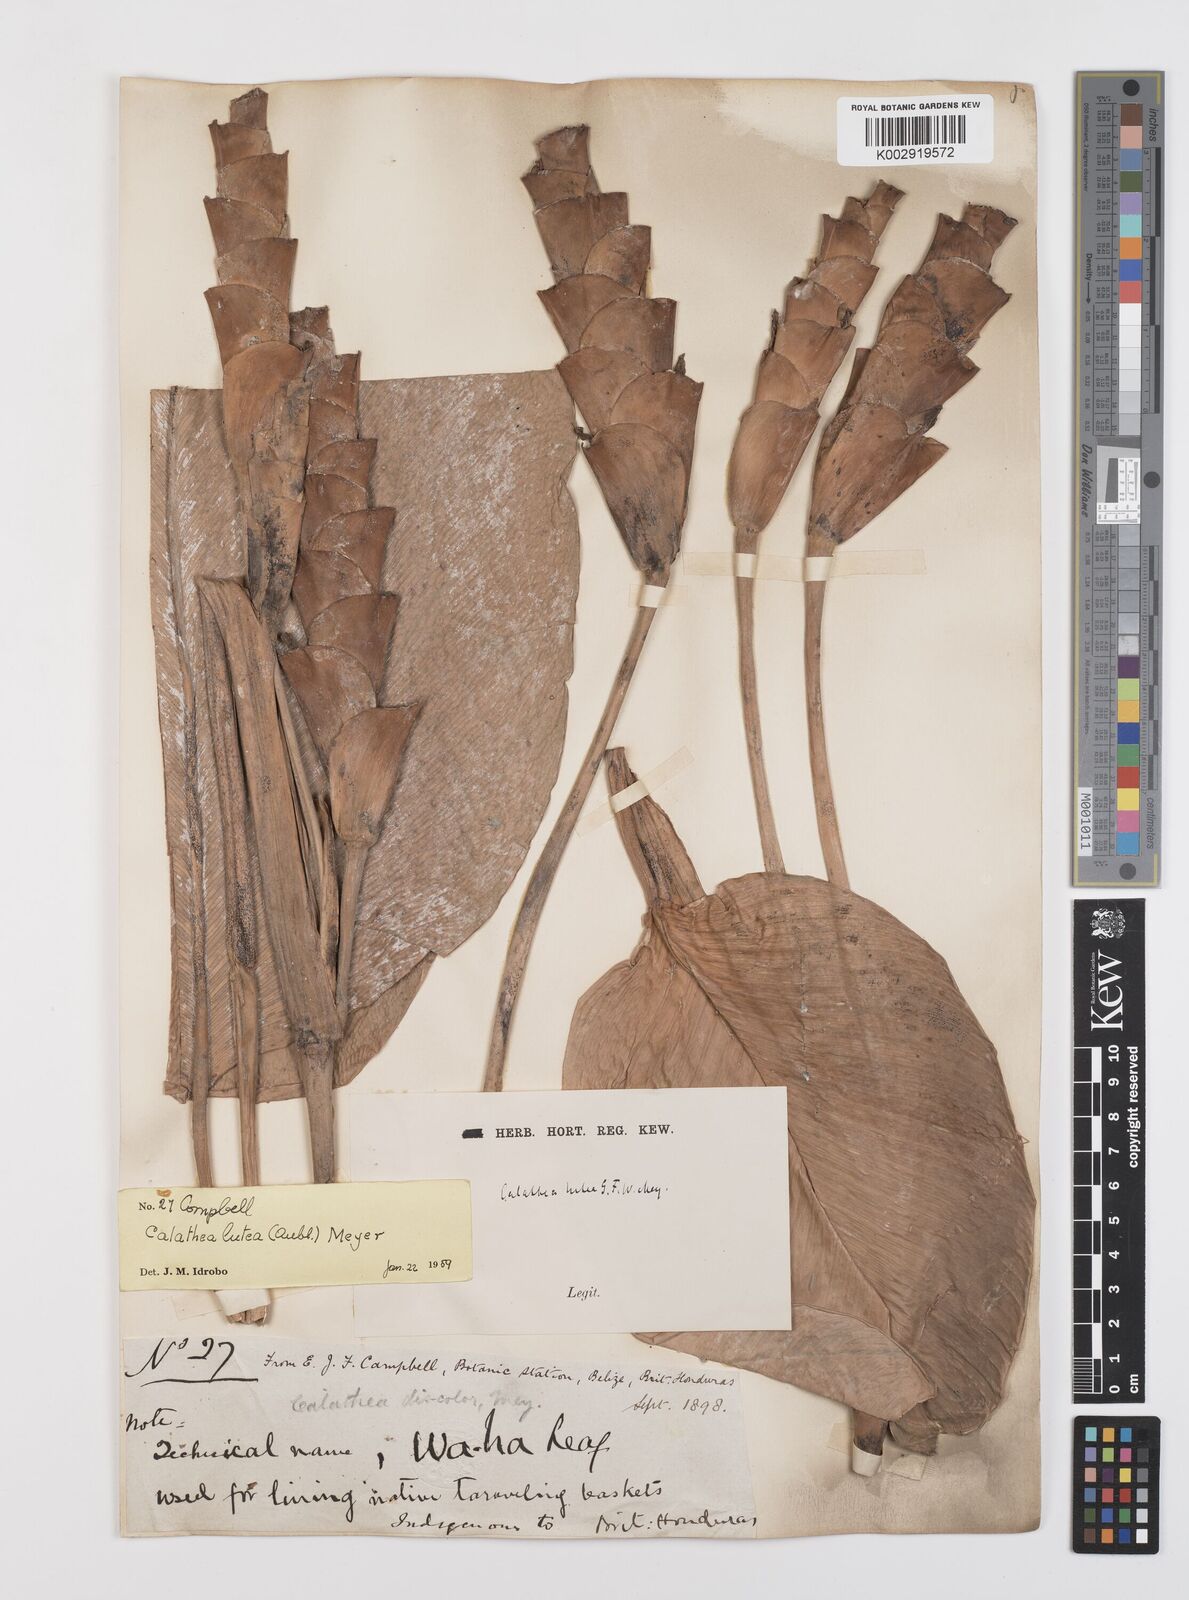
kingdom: Plantae
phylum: Tracheophyta
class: Liliopsida
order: Zingiberales
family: Marantaceae
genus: Calathea
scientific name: Calathea lutea
